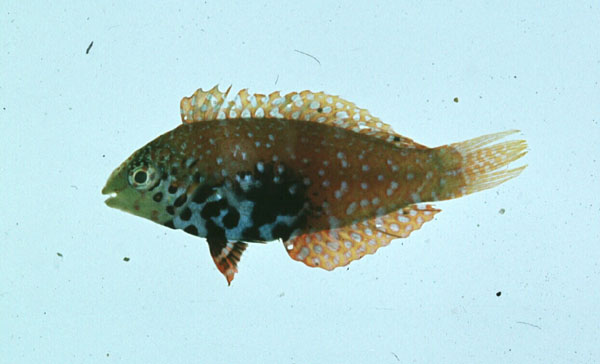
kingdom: Animalia
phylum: Chordata
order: Perciformes
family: Labridae
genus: Macropharyngodon
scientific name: Macropharyngodon bipartitus
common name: Divided wrasse
